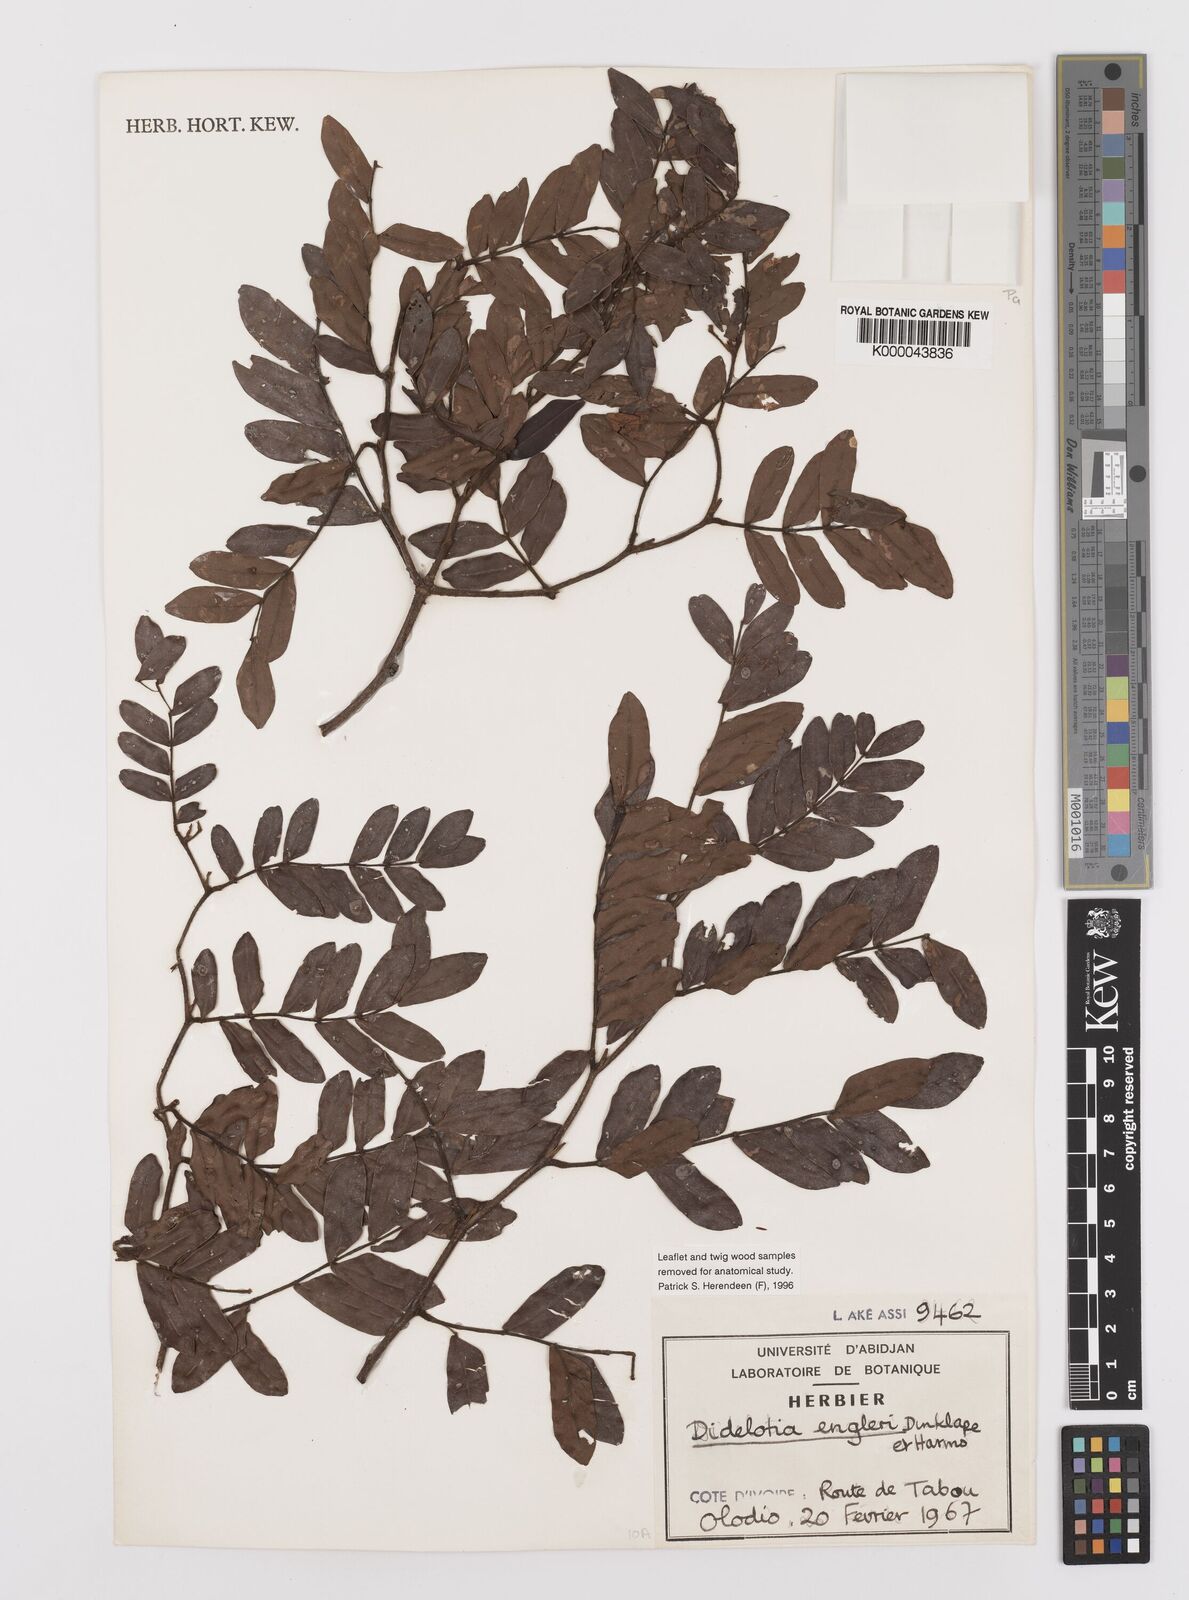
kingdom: Plantae
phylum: Tracheophyta
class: Magnoliopsida
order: Fabales
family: Fabaceae
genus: Didelotia
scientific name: Didelotia engleri
